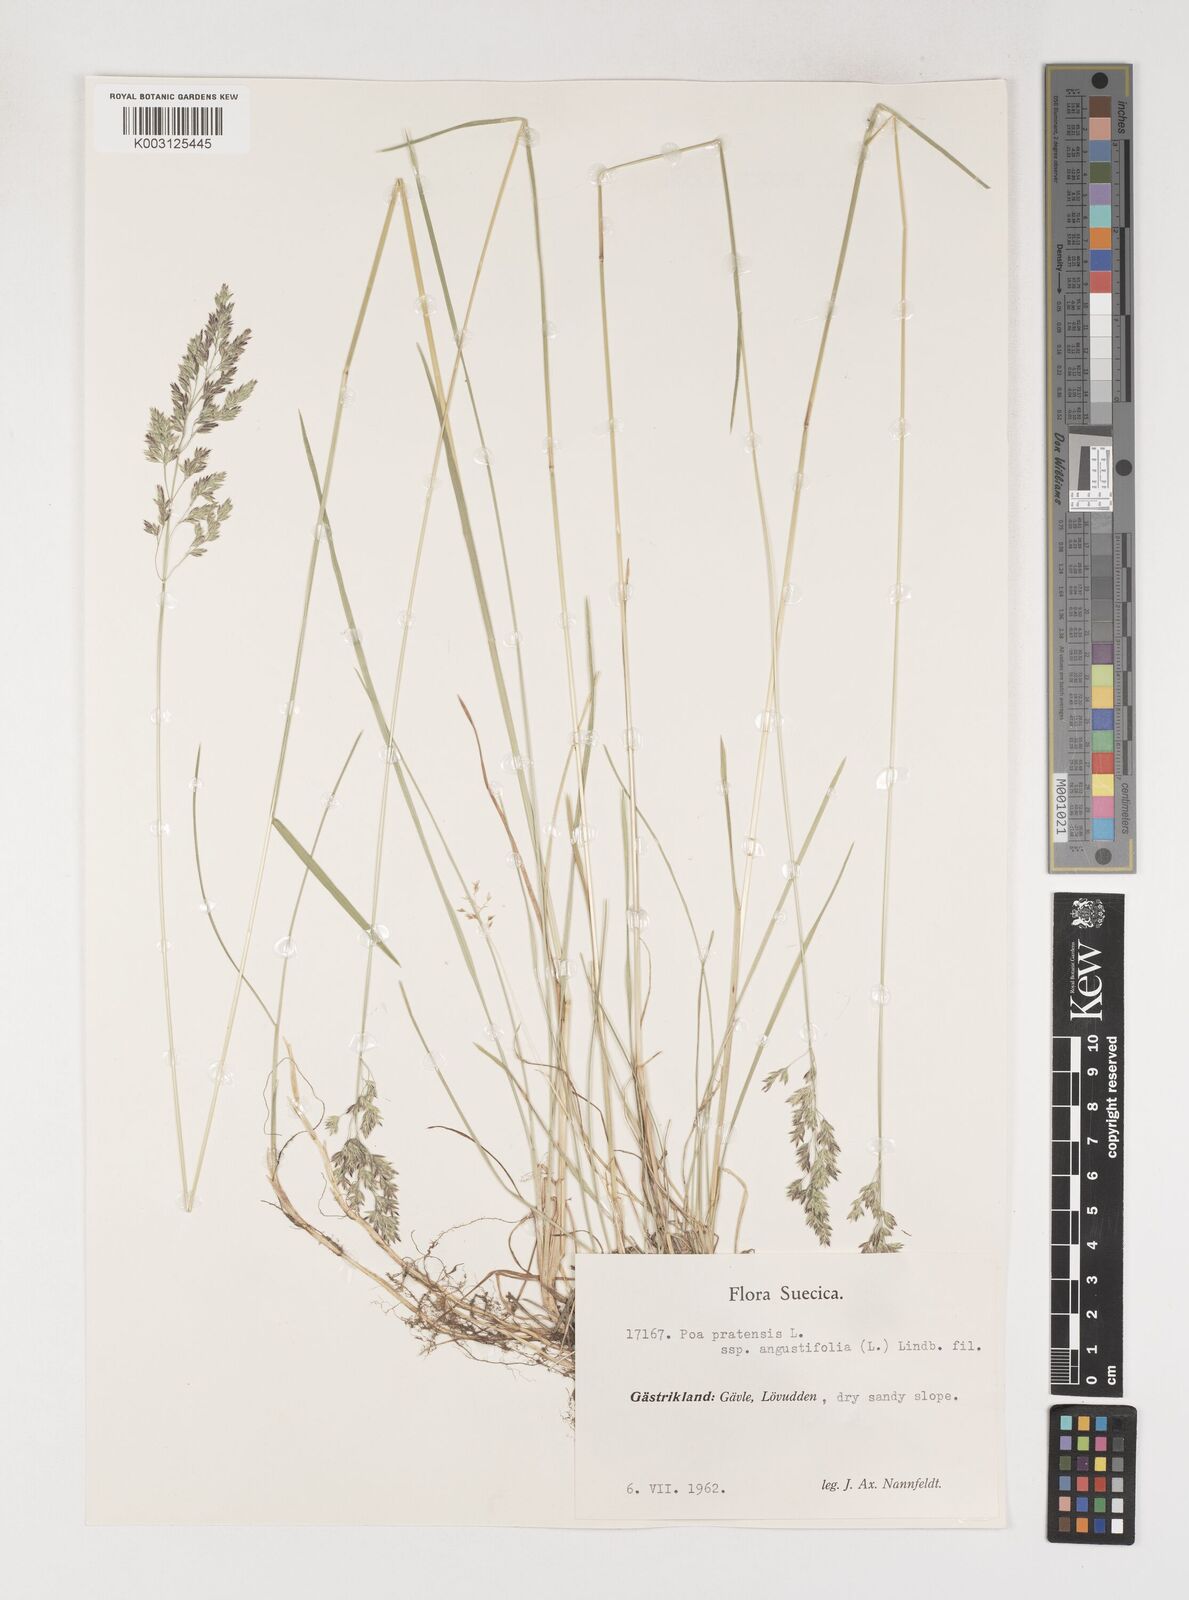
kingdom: Plantae
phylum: Tracheophyta
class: Liliopsida
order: Poales
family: Poaceae
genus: Poa
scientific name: Poa pratensis
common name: Kentucky bluegrass
